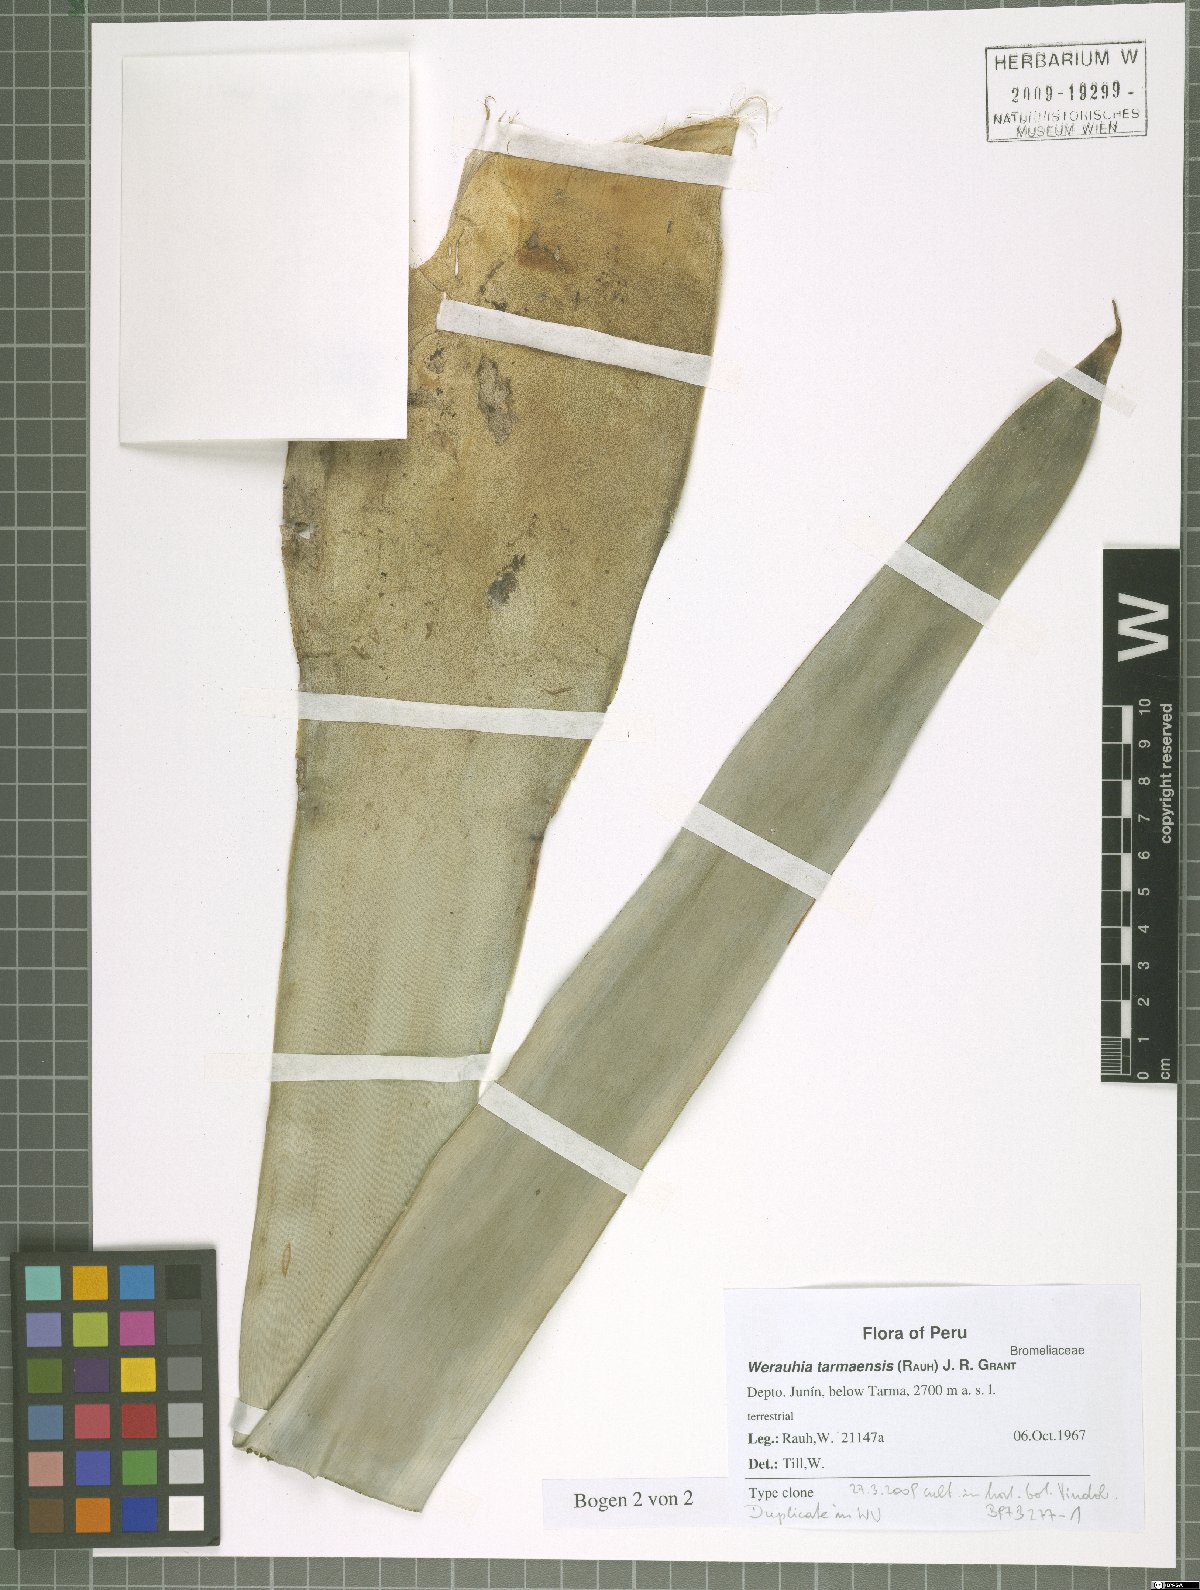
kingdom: Plantae
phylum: Tracheophyta
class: Liliopsida
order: Poales
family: Bromeliaceae
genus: Werauhia
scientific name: Werauhia tarmaensis
